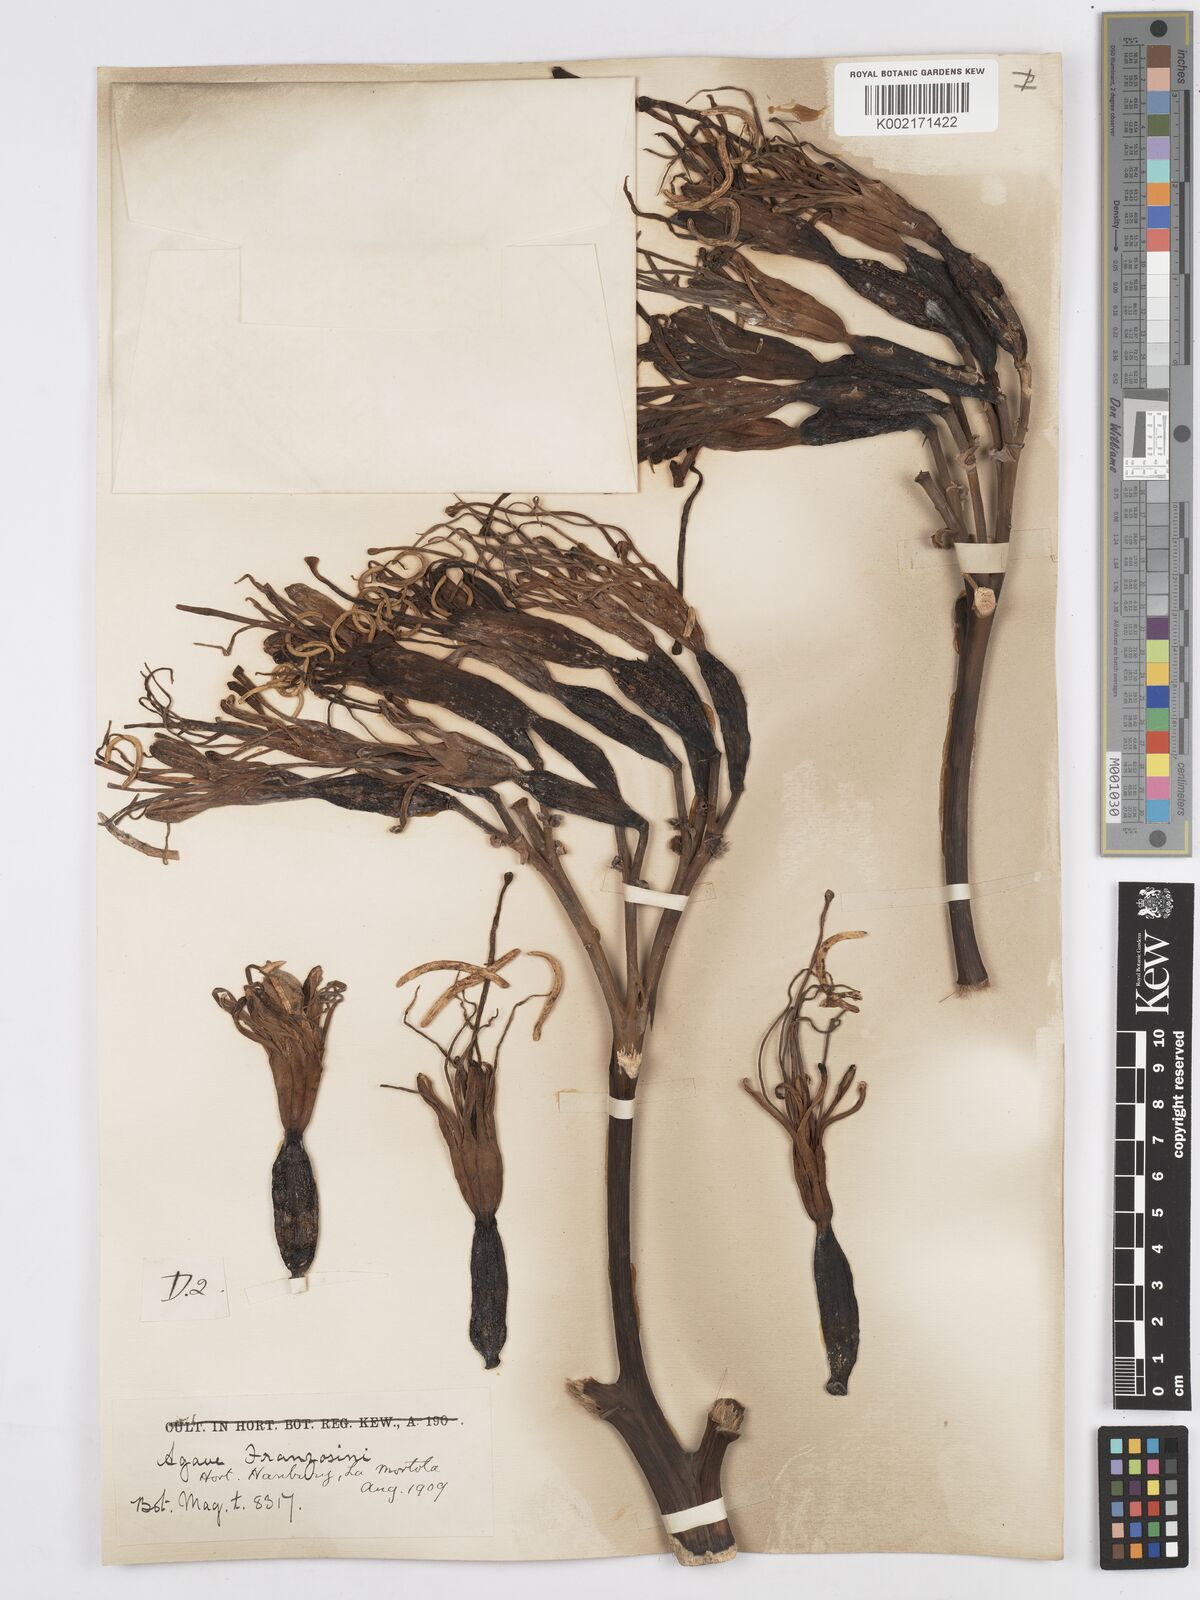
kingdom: Plantae
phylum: Tracheophyta
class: Liliopsida
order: Asparagales
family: Asparagaceae
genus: Agave
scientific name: Agave americana
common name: Centuryplant
